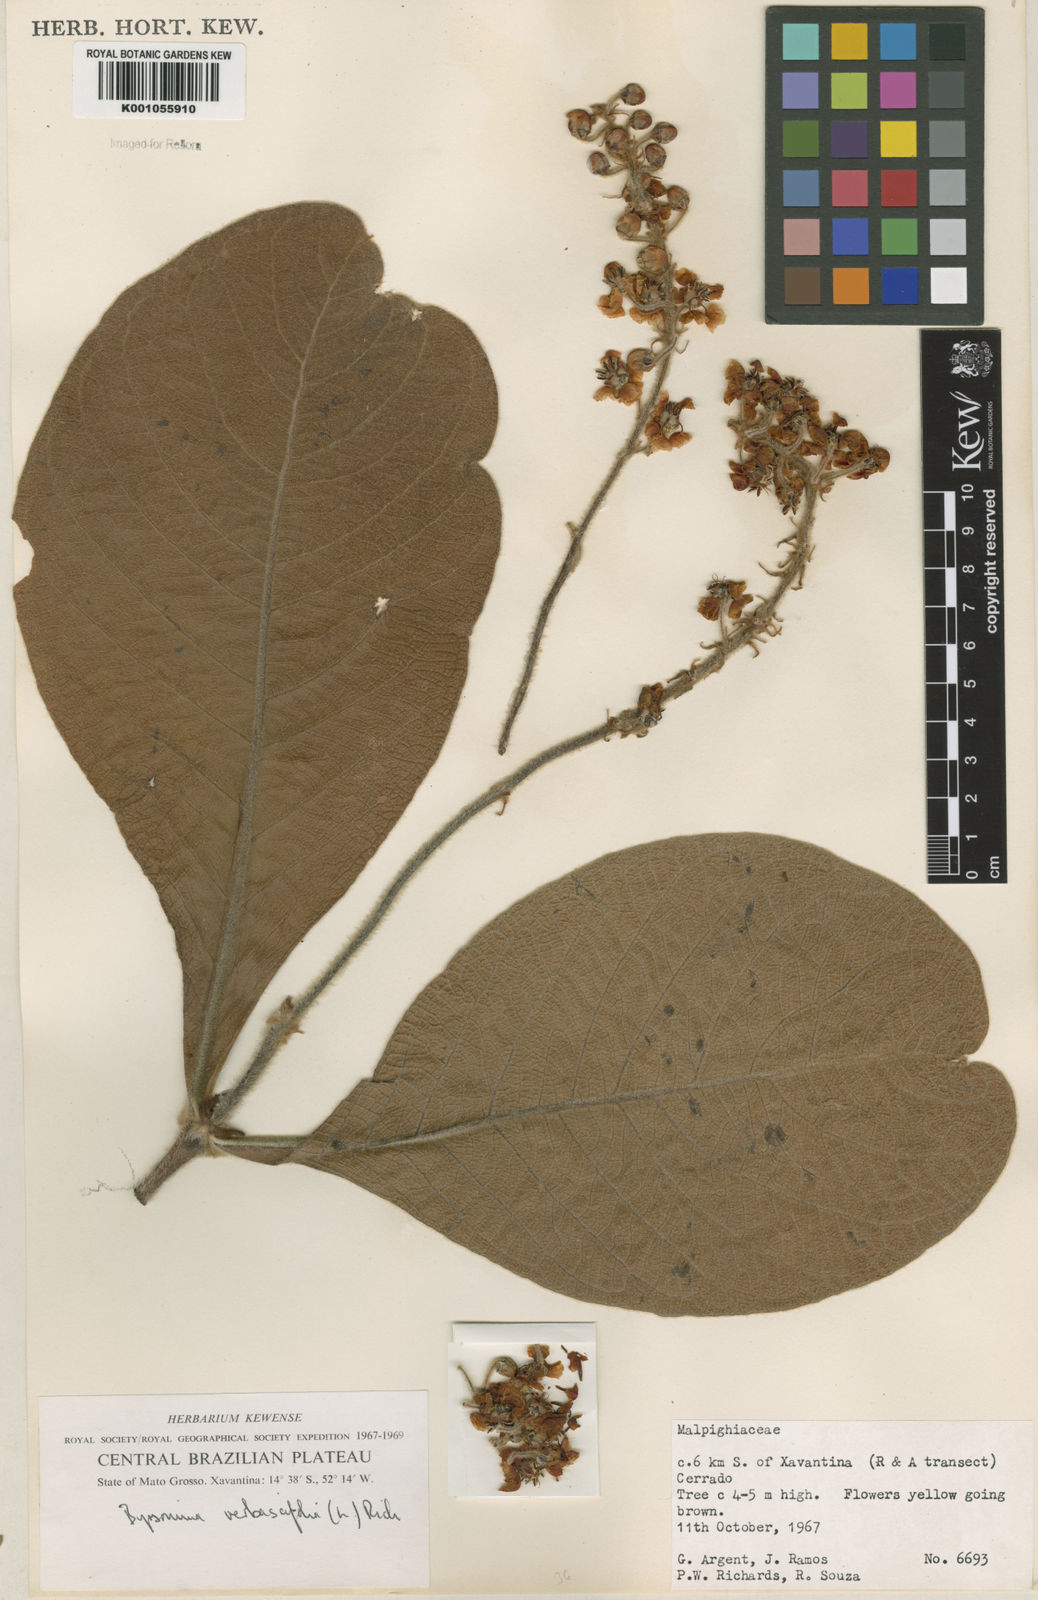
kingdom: Plantae
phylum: Tracheophyta
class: Magnoliopsida
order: Malpighiales
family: Malpighiaceae
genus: Byrsonima
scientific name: Byrsonima verbascifolia
